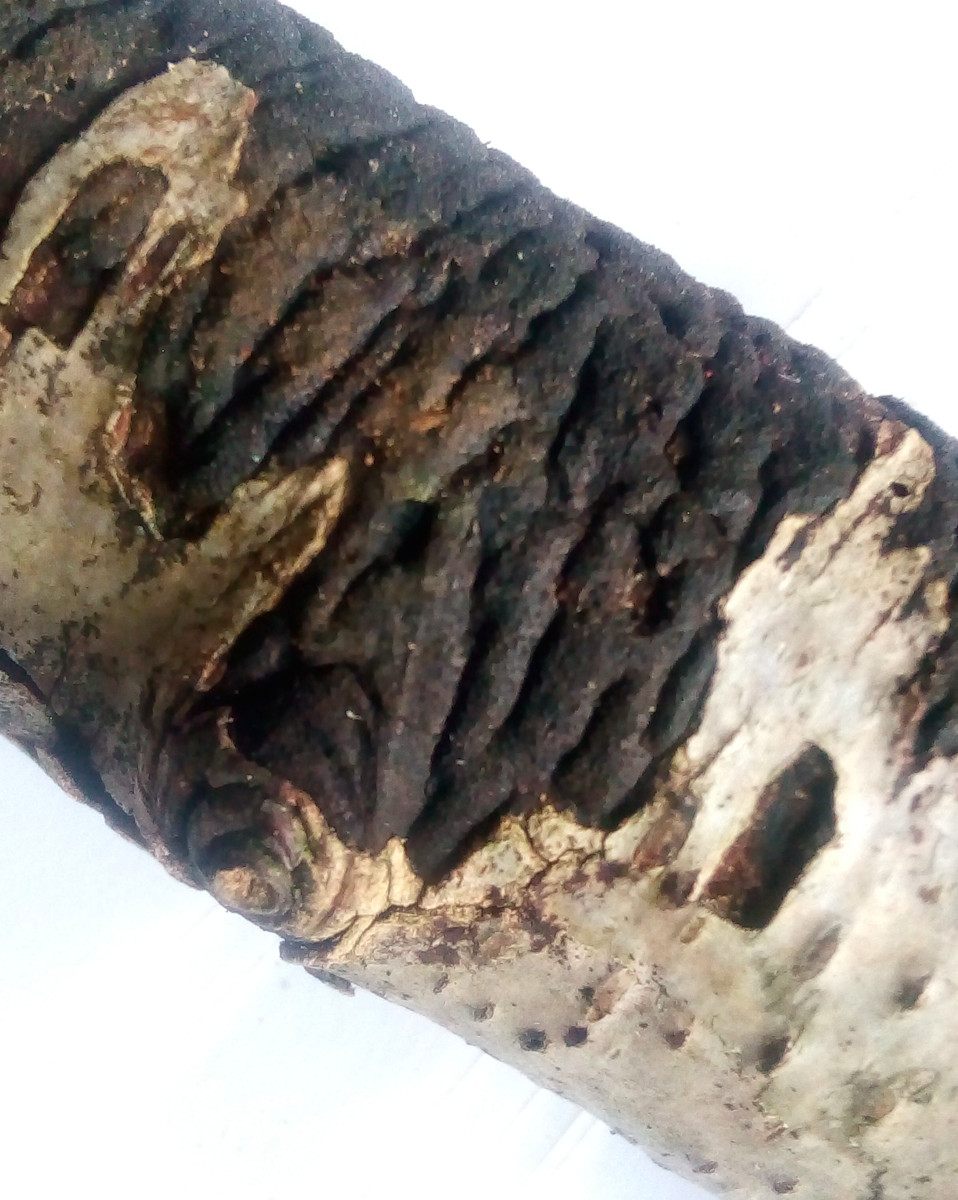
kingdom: Fungi
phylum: Ascomycota
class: Sordariomycetes
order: Xylariales
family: Diatrypaceae
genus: Diatrype
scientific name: Diatrype
